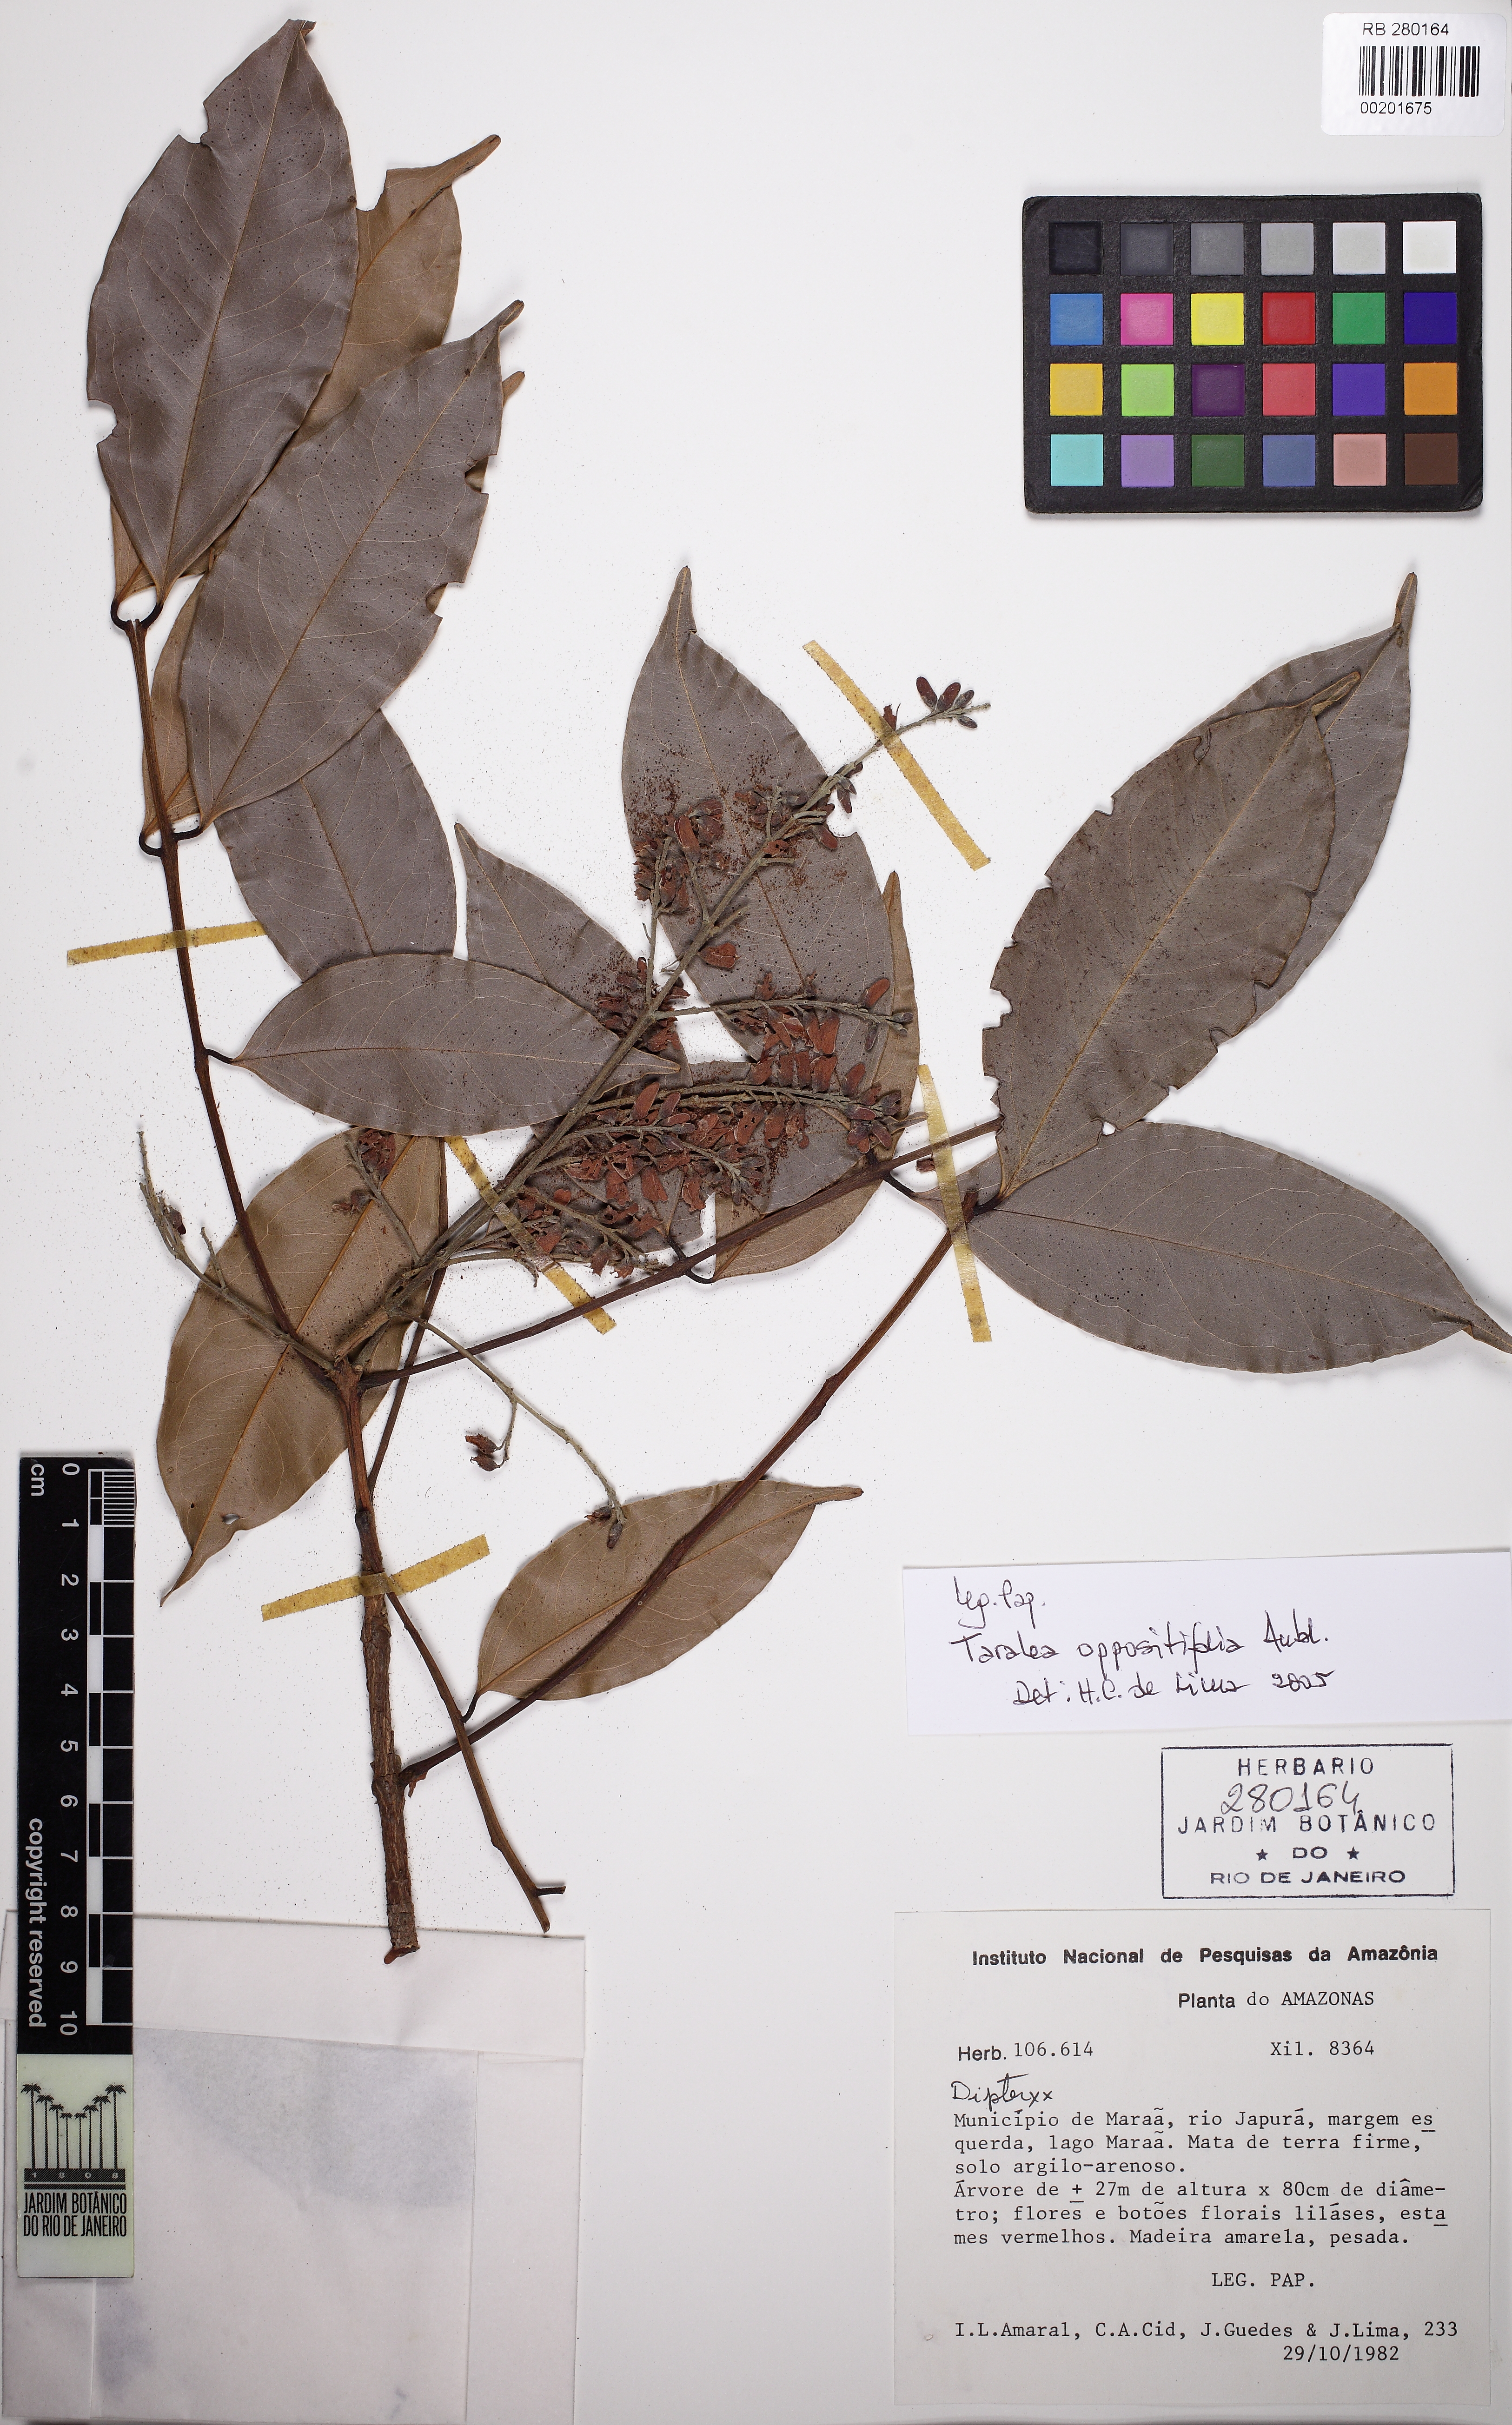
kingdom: Plantae
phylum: Tracheophyta
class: Magnoliopsida
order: Fabales
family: Fabaceae
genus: Taralea
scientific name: Taralea oppositifolia
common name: Tonka
